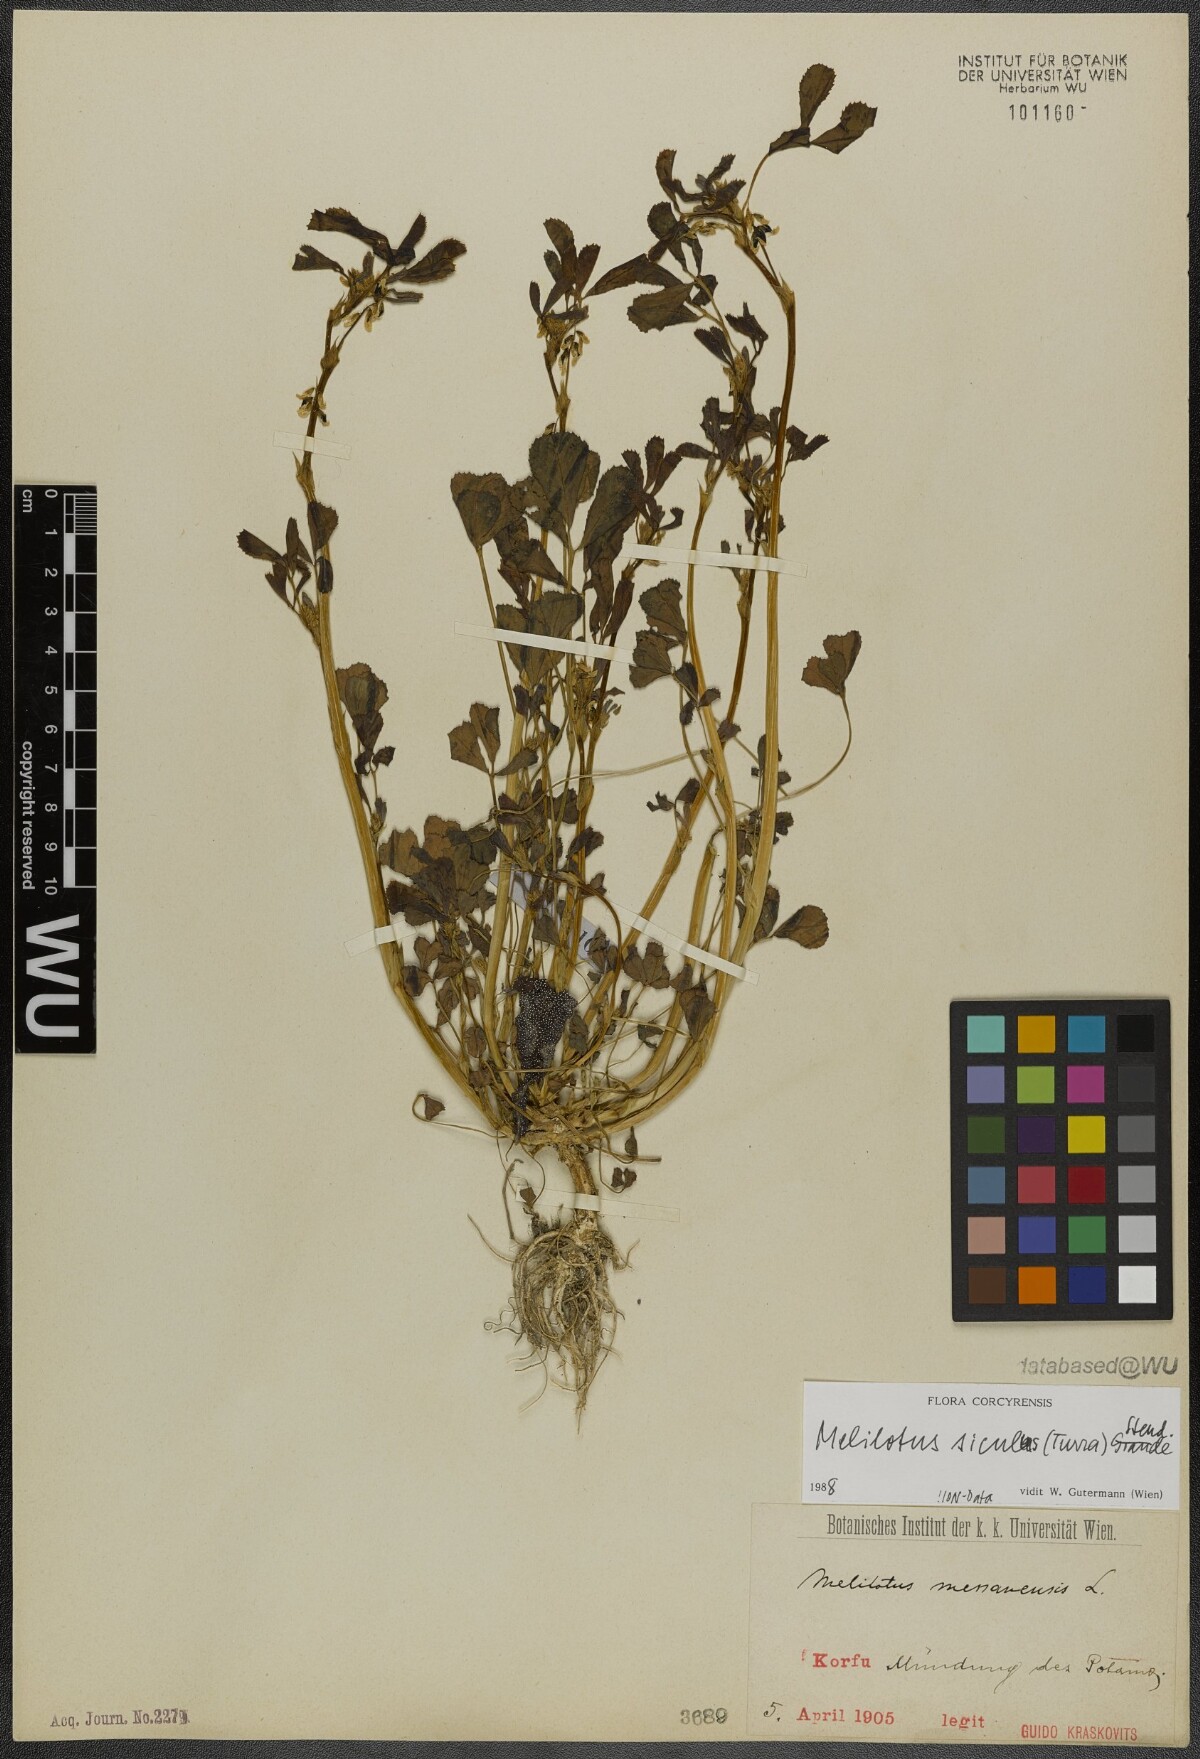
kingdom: Plantae
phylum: Tracheophyta
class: Magnoliopsida
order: Fabales
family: Fabaceae
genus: Melilotus
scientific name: Melilotus siculus
